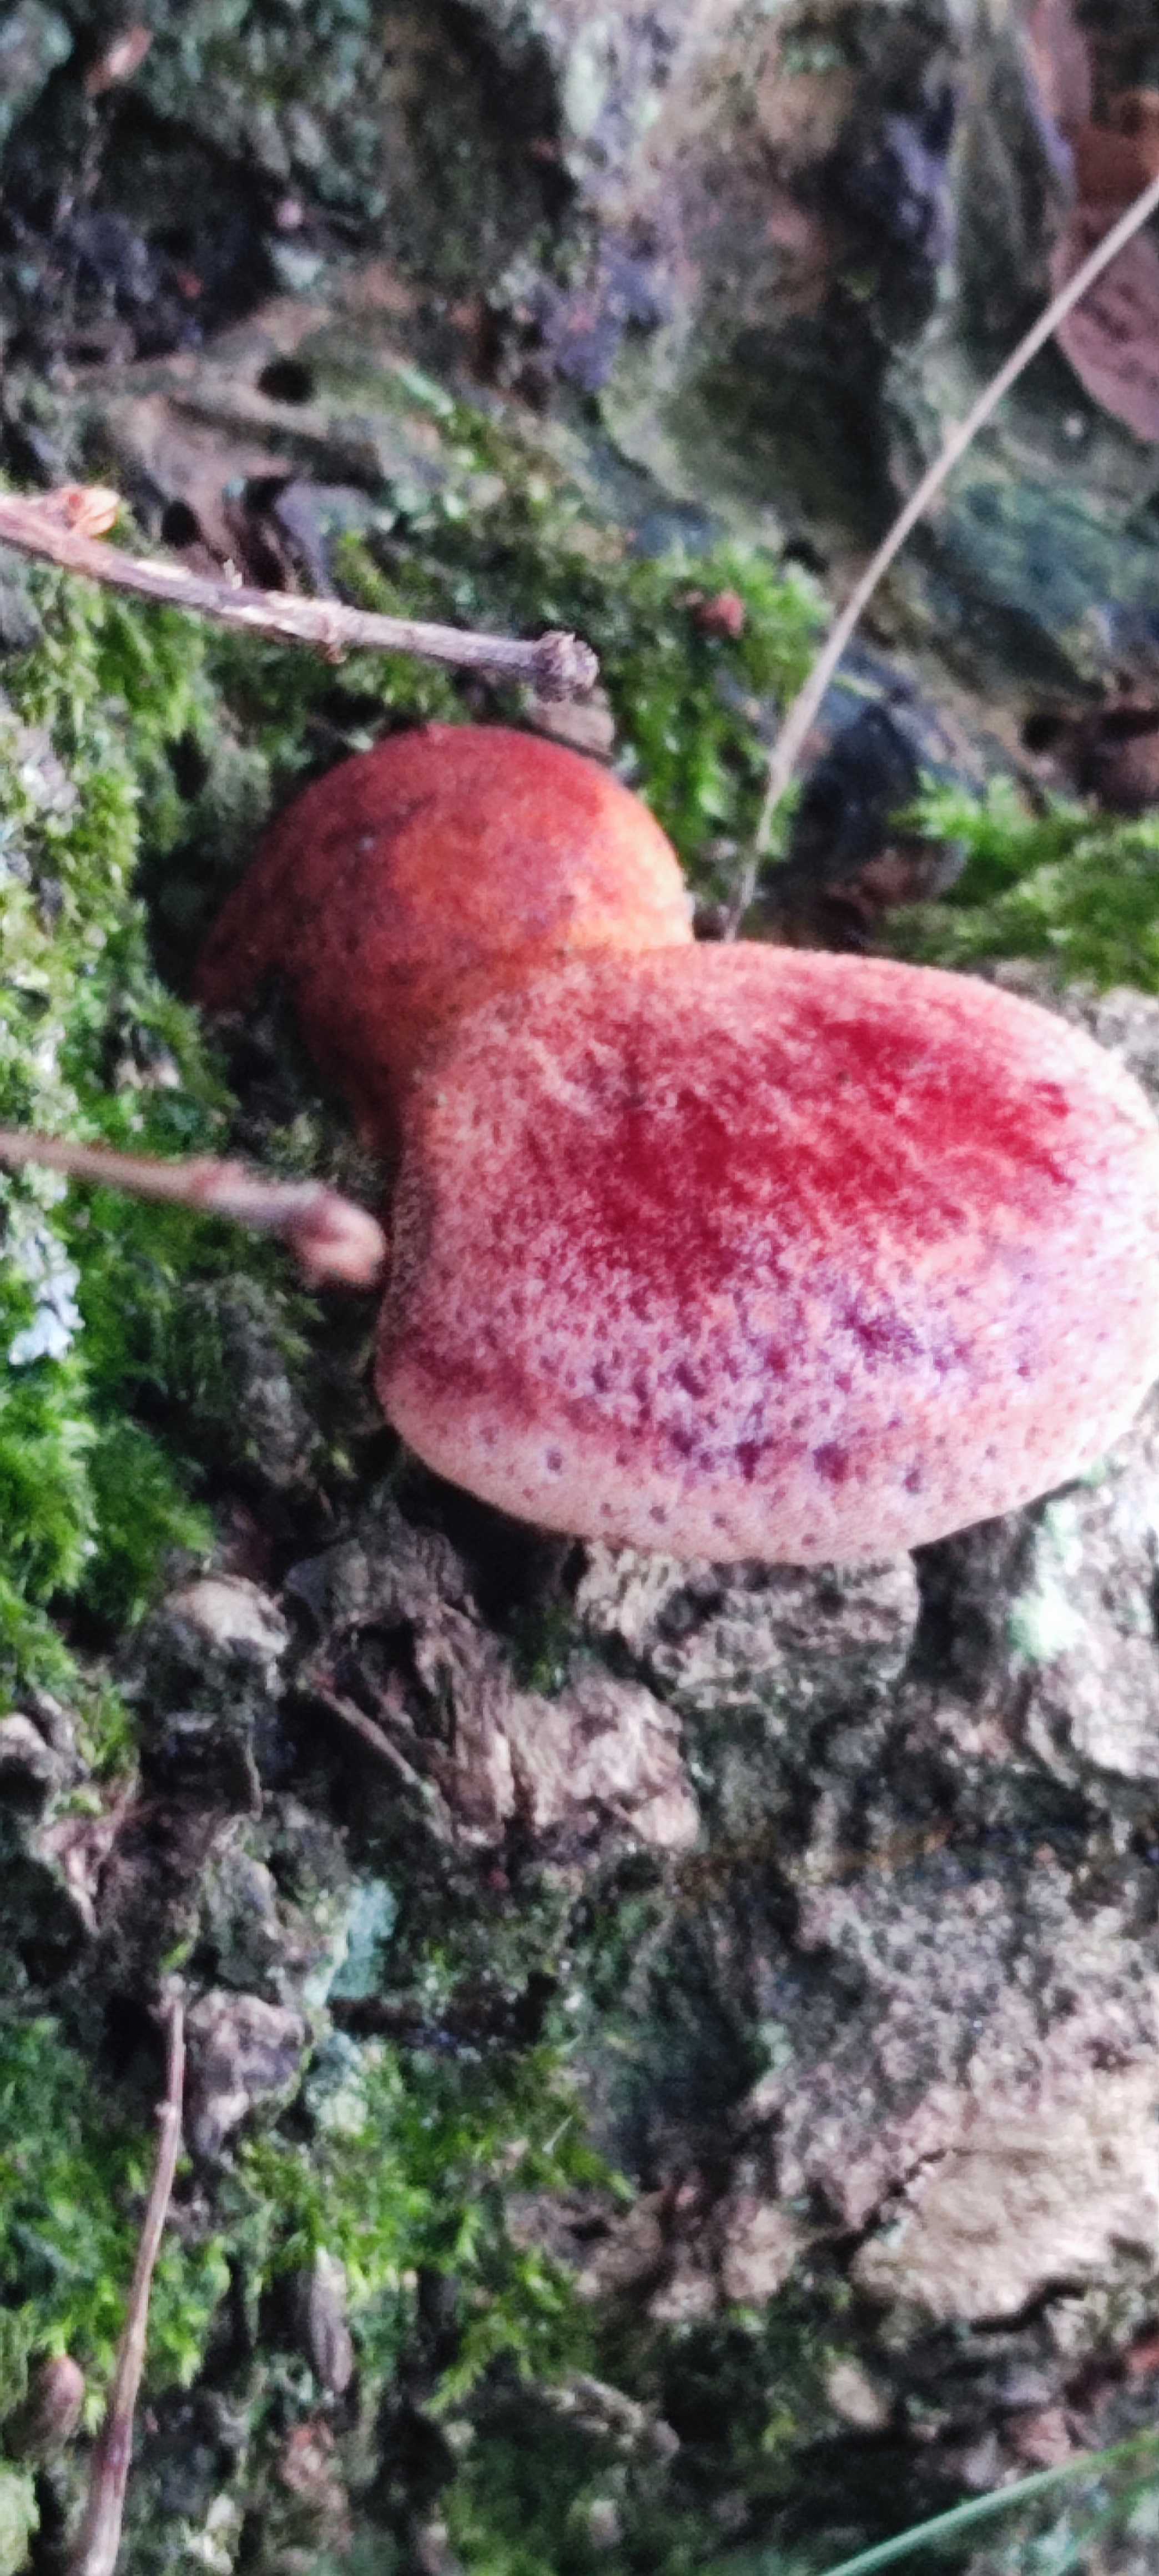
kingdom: Fungi
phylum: Basidiomycota
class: Agaricomycetes
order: Agaricales
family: Fistulinaceae
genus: Fistulina
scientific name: Fistulina hepatica
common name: oksetunge
